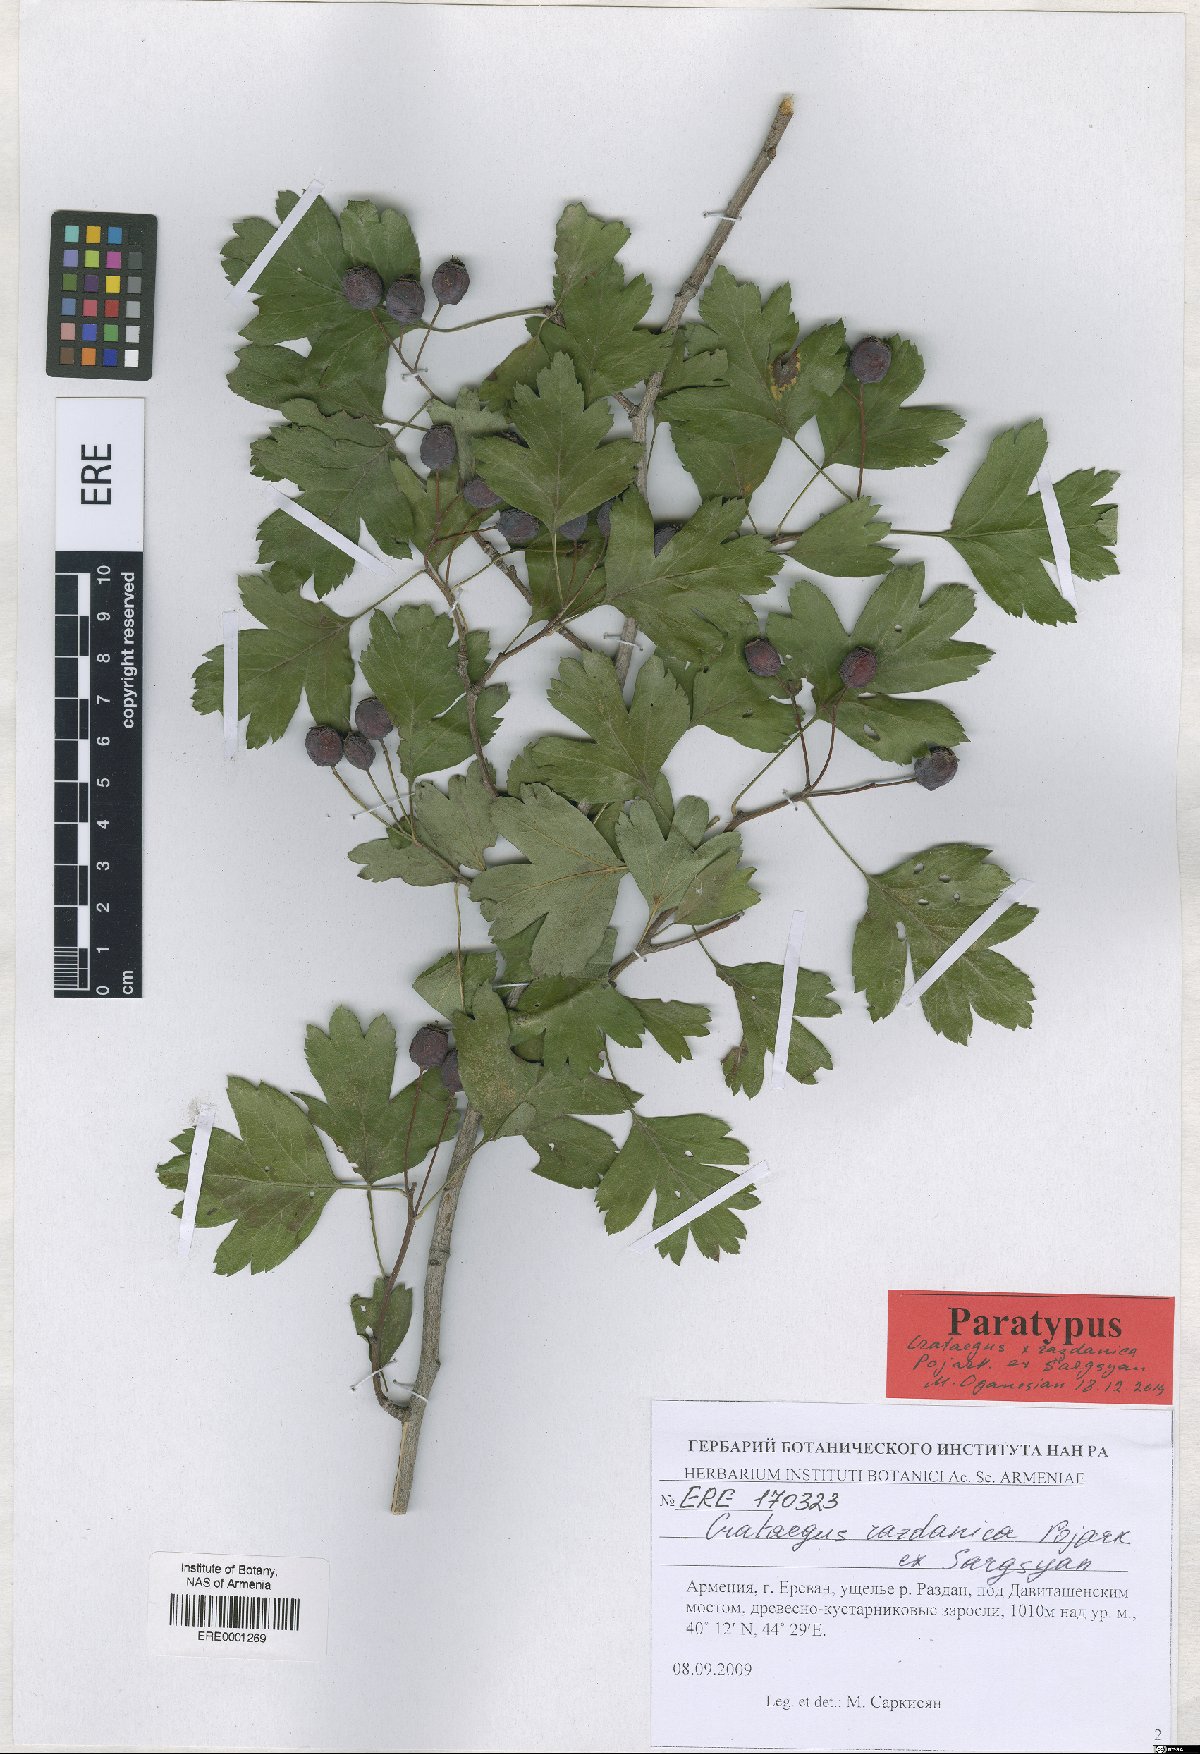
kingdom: Plantae
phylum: Tracheophyta
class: Magnoliopsida
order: Rosales
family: Rosaceae
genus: Crataegus
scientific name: Crataegus
